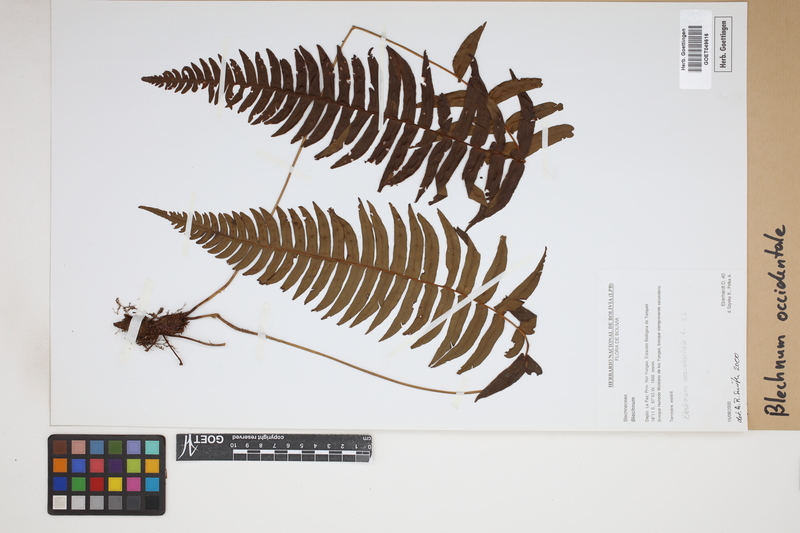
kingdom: Plantae
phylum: Tracheophyta
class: Polypodiopsida
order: Polypodiales
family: Blechnaceae
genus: Blechnum
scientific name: Blechnum occidentale
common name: Hammock fern
